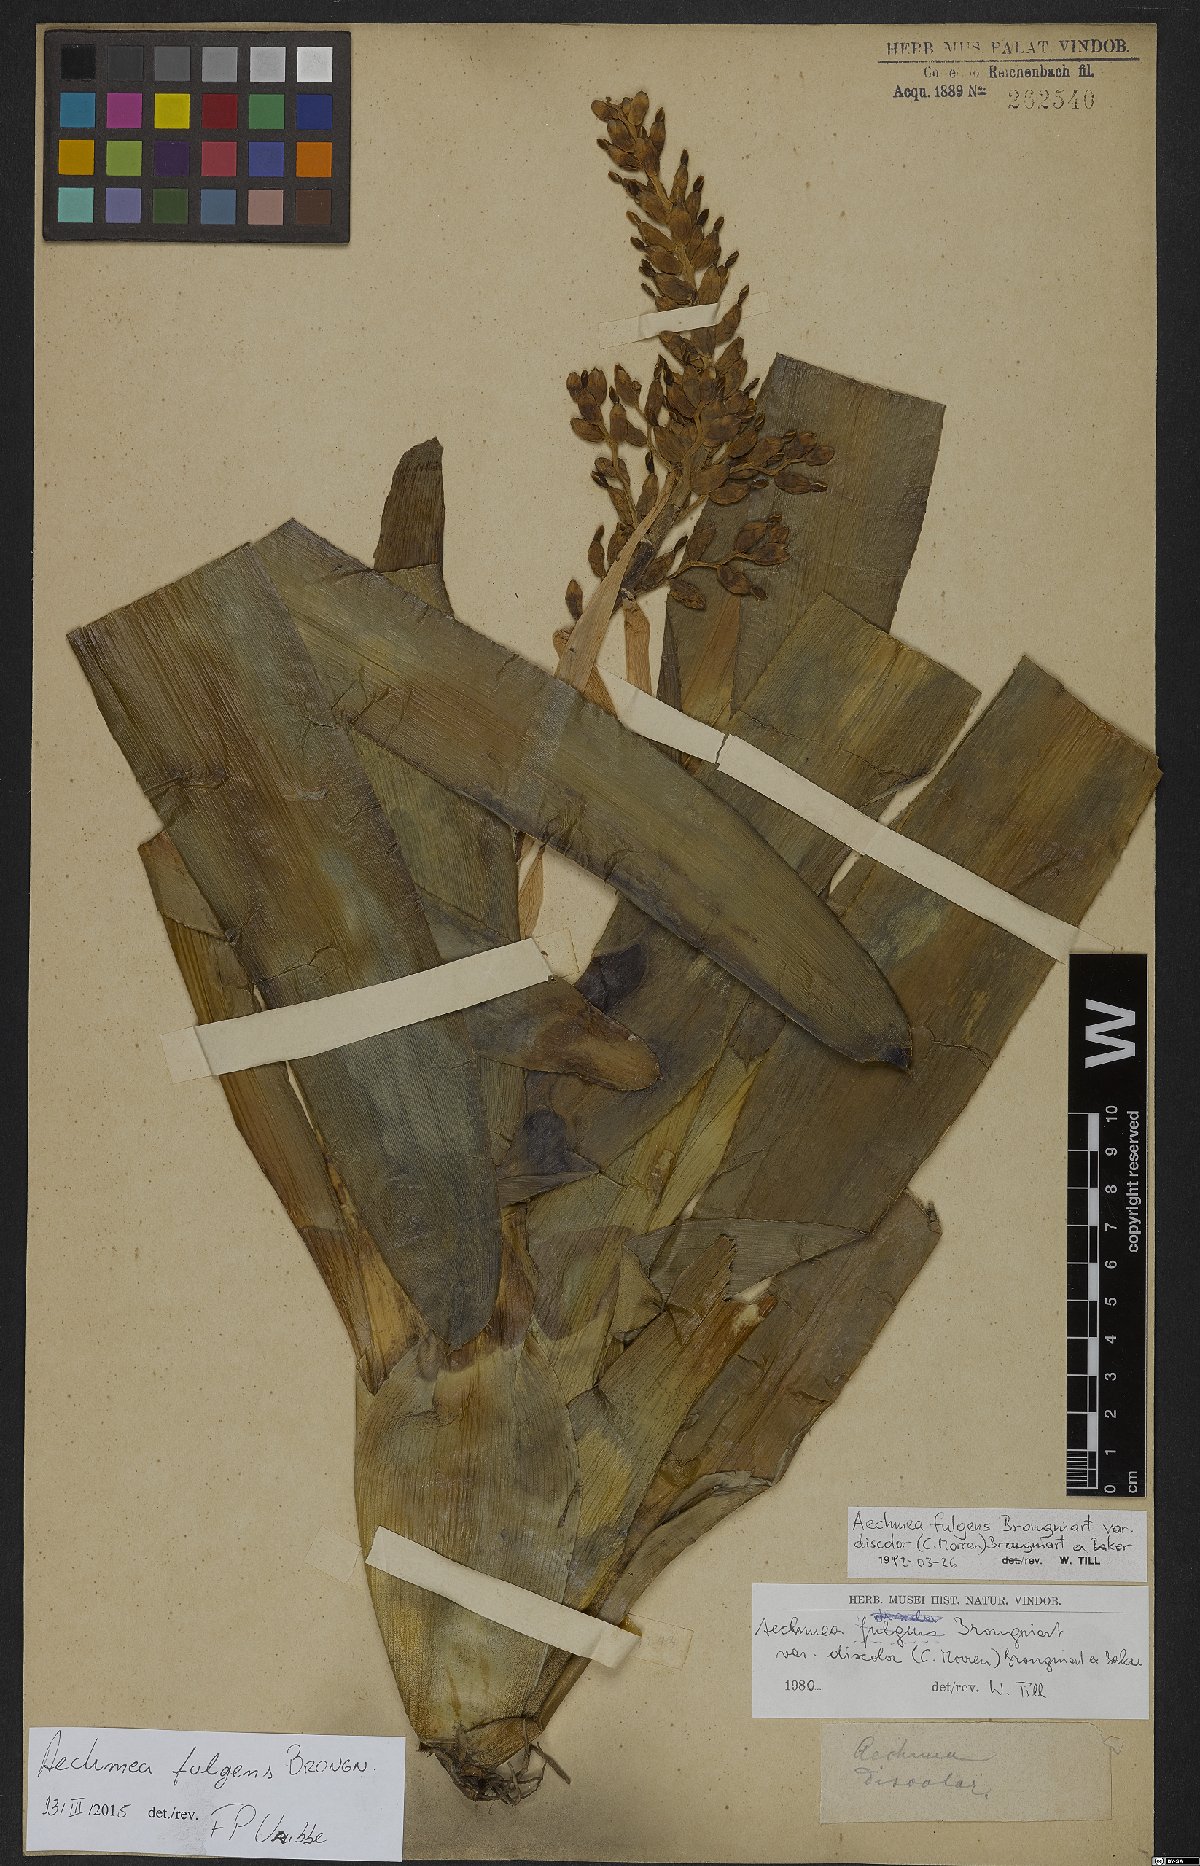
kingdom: Plantae
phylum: Tracheophyta
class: Liliopsida
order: Poales
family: Bromeliaceae
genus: Aechmea
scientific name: Aechmea fulgens
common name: Coralberry
